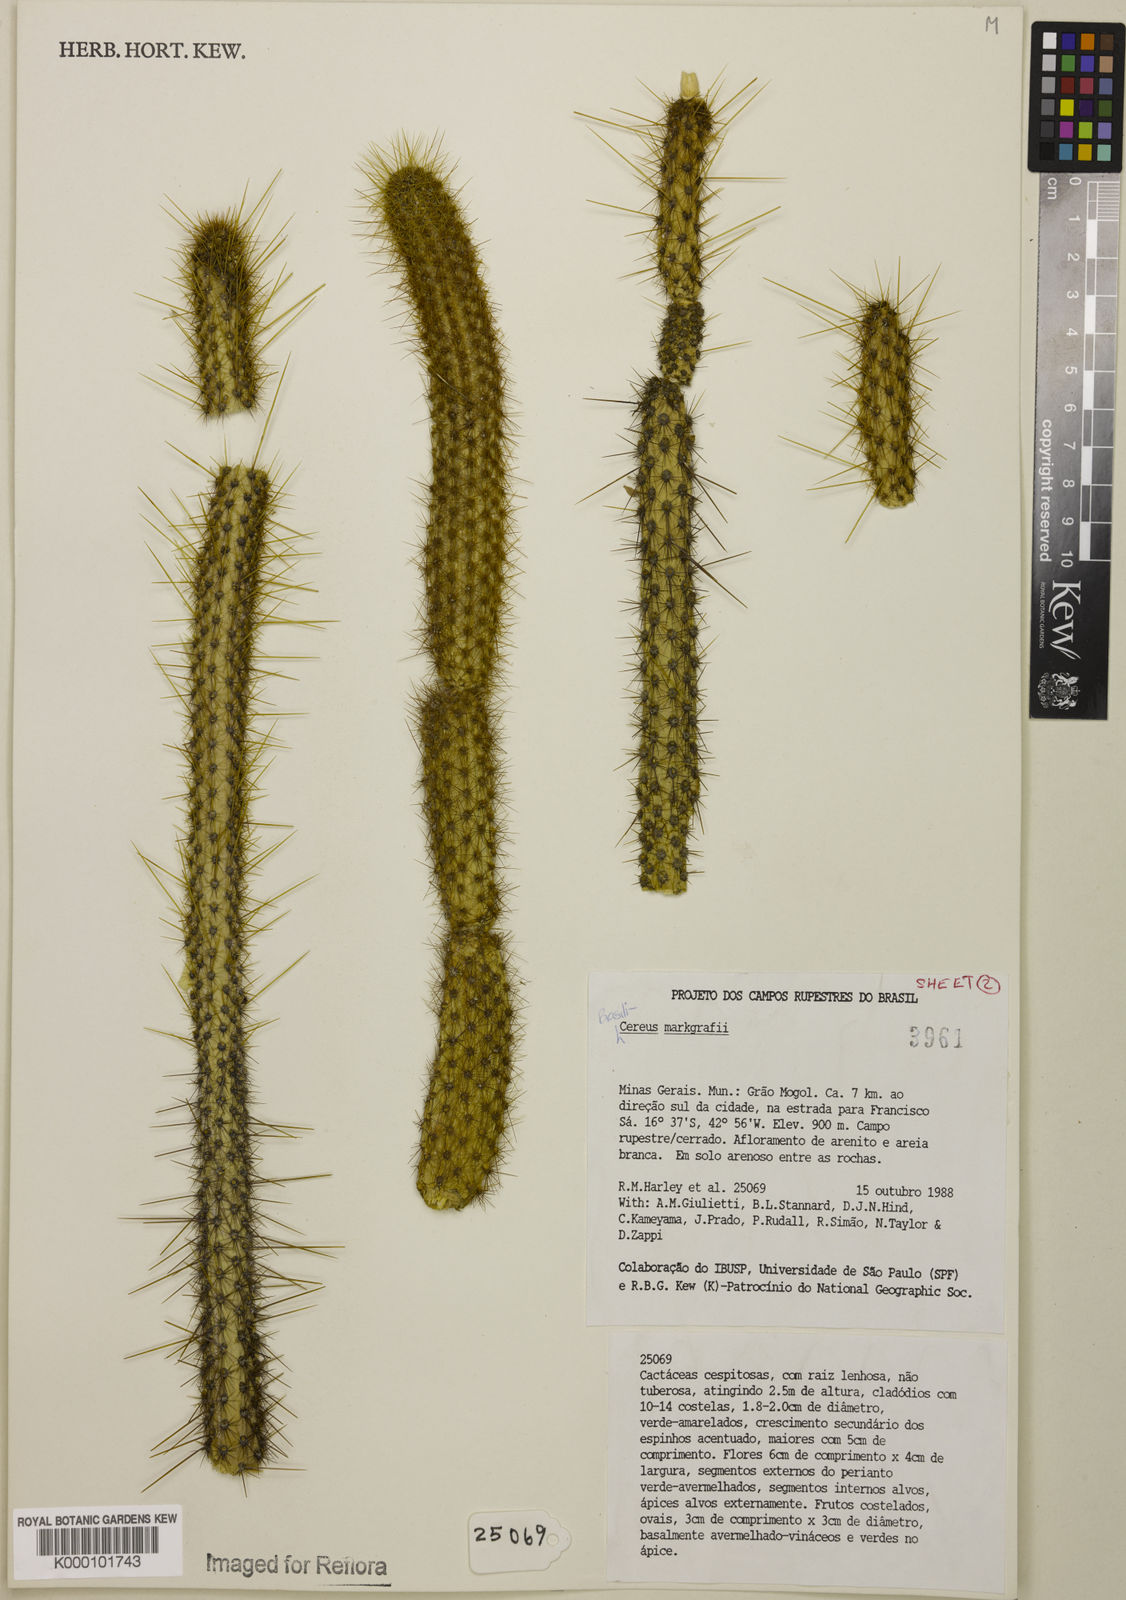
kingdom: Plantae
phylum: Tracheophyta
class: Magnoliopsida
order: Caryophyllales
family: Cactaceae
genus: Brasilicereus
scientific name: Brasilicereus markgrafii
